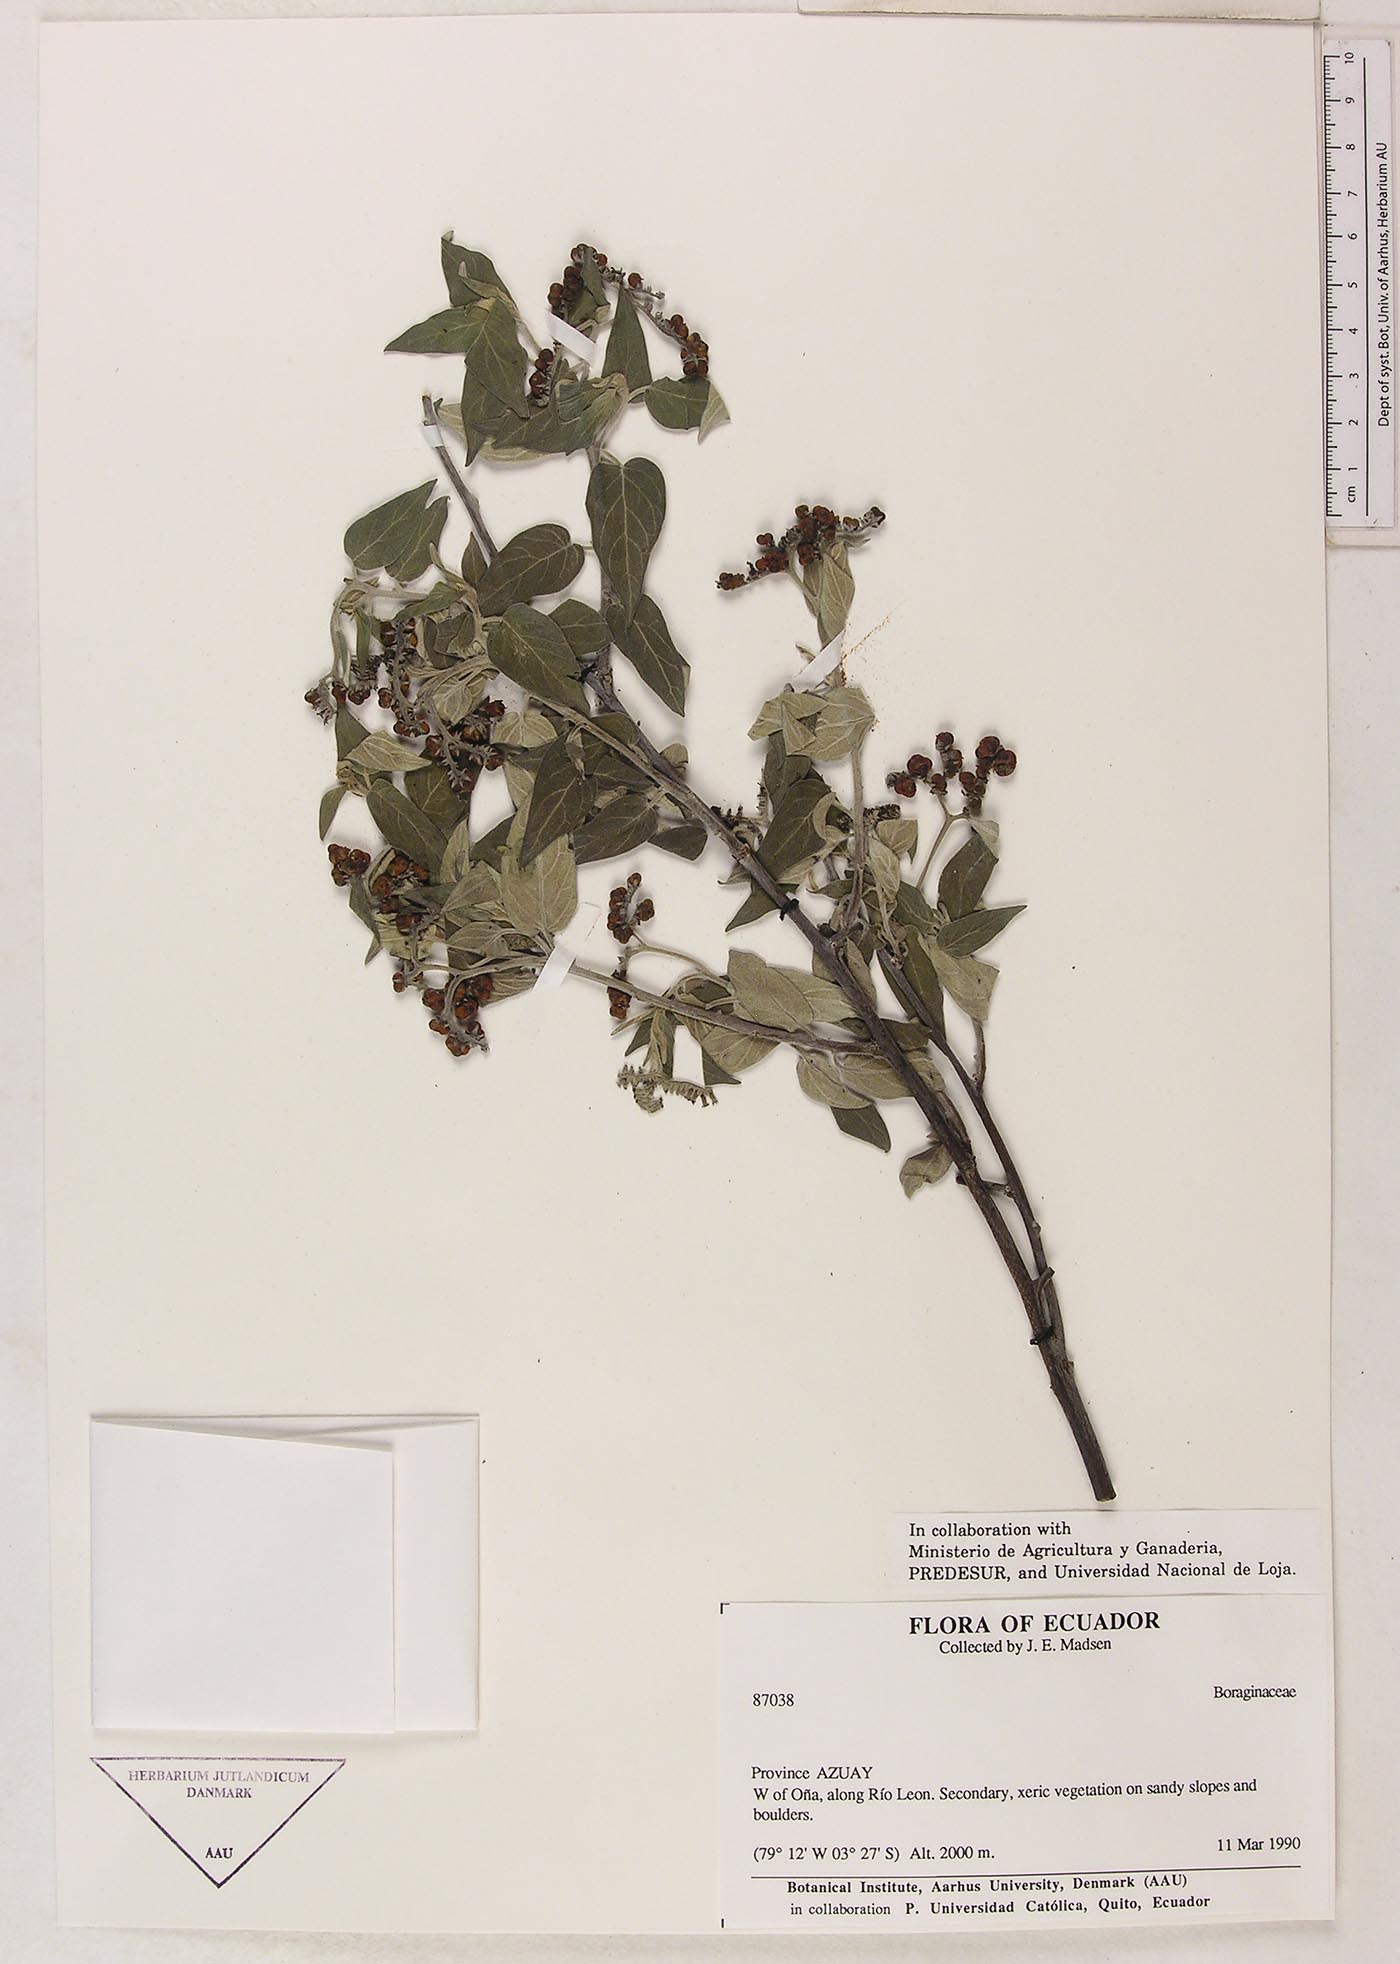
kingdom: Plantae
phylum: Tracheophyta
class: Magnoliopsida
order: Boraginales
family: Heliotropiaceae
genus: Myriopus
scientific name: Myriopus
